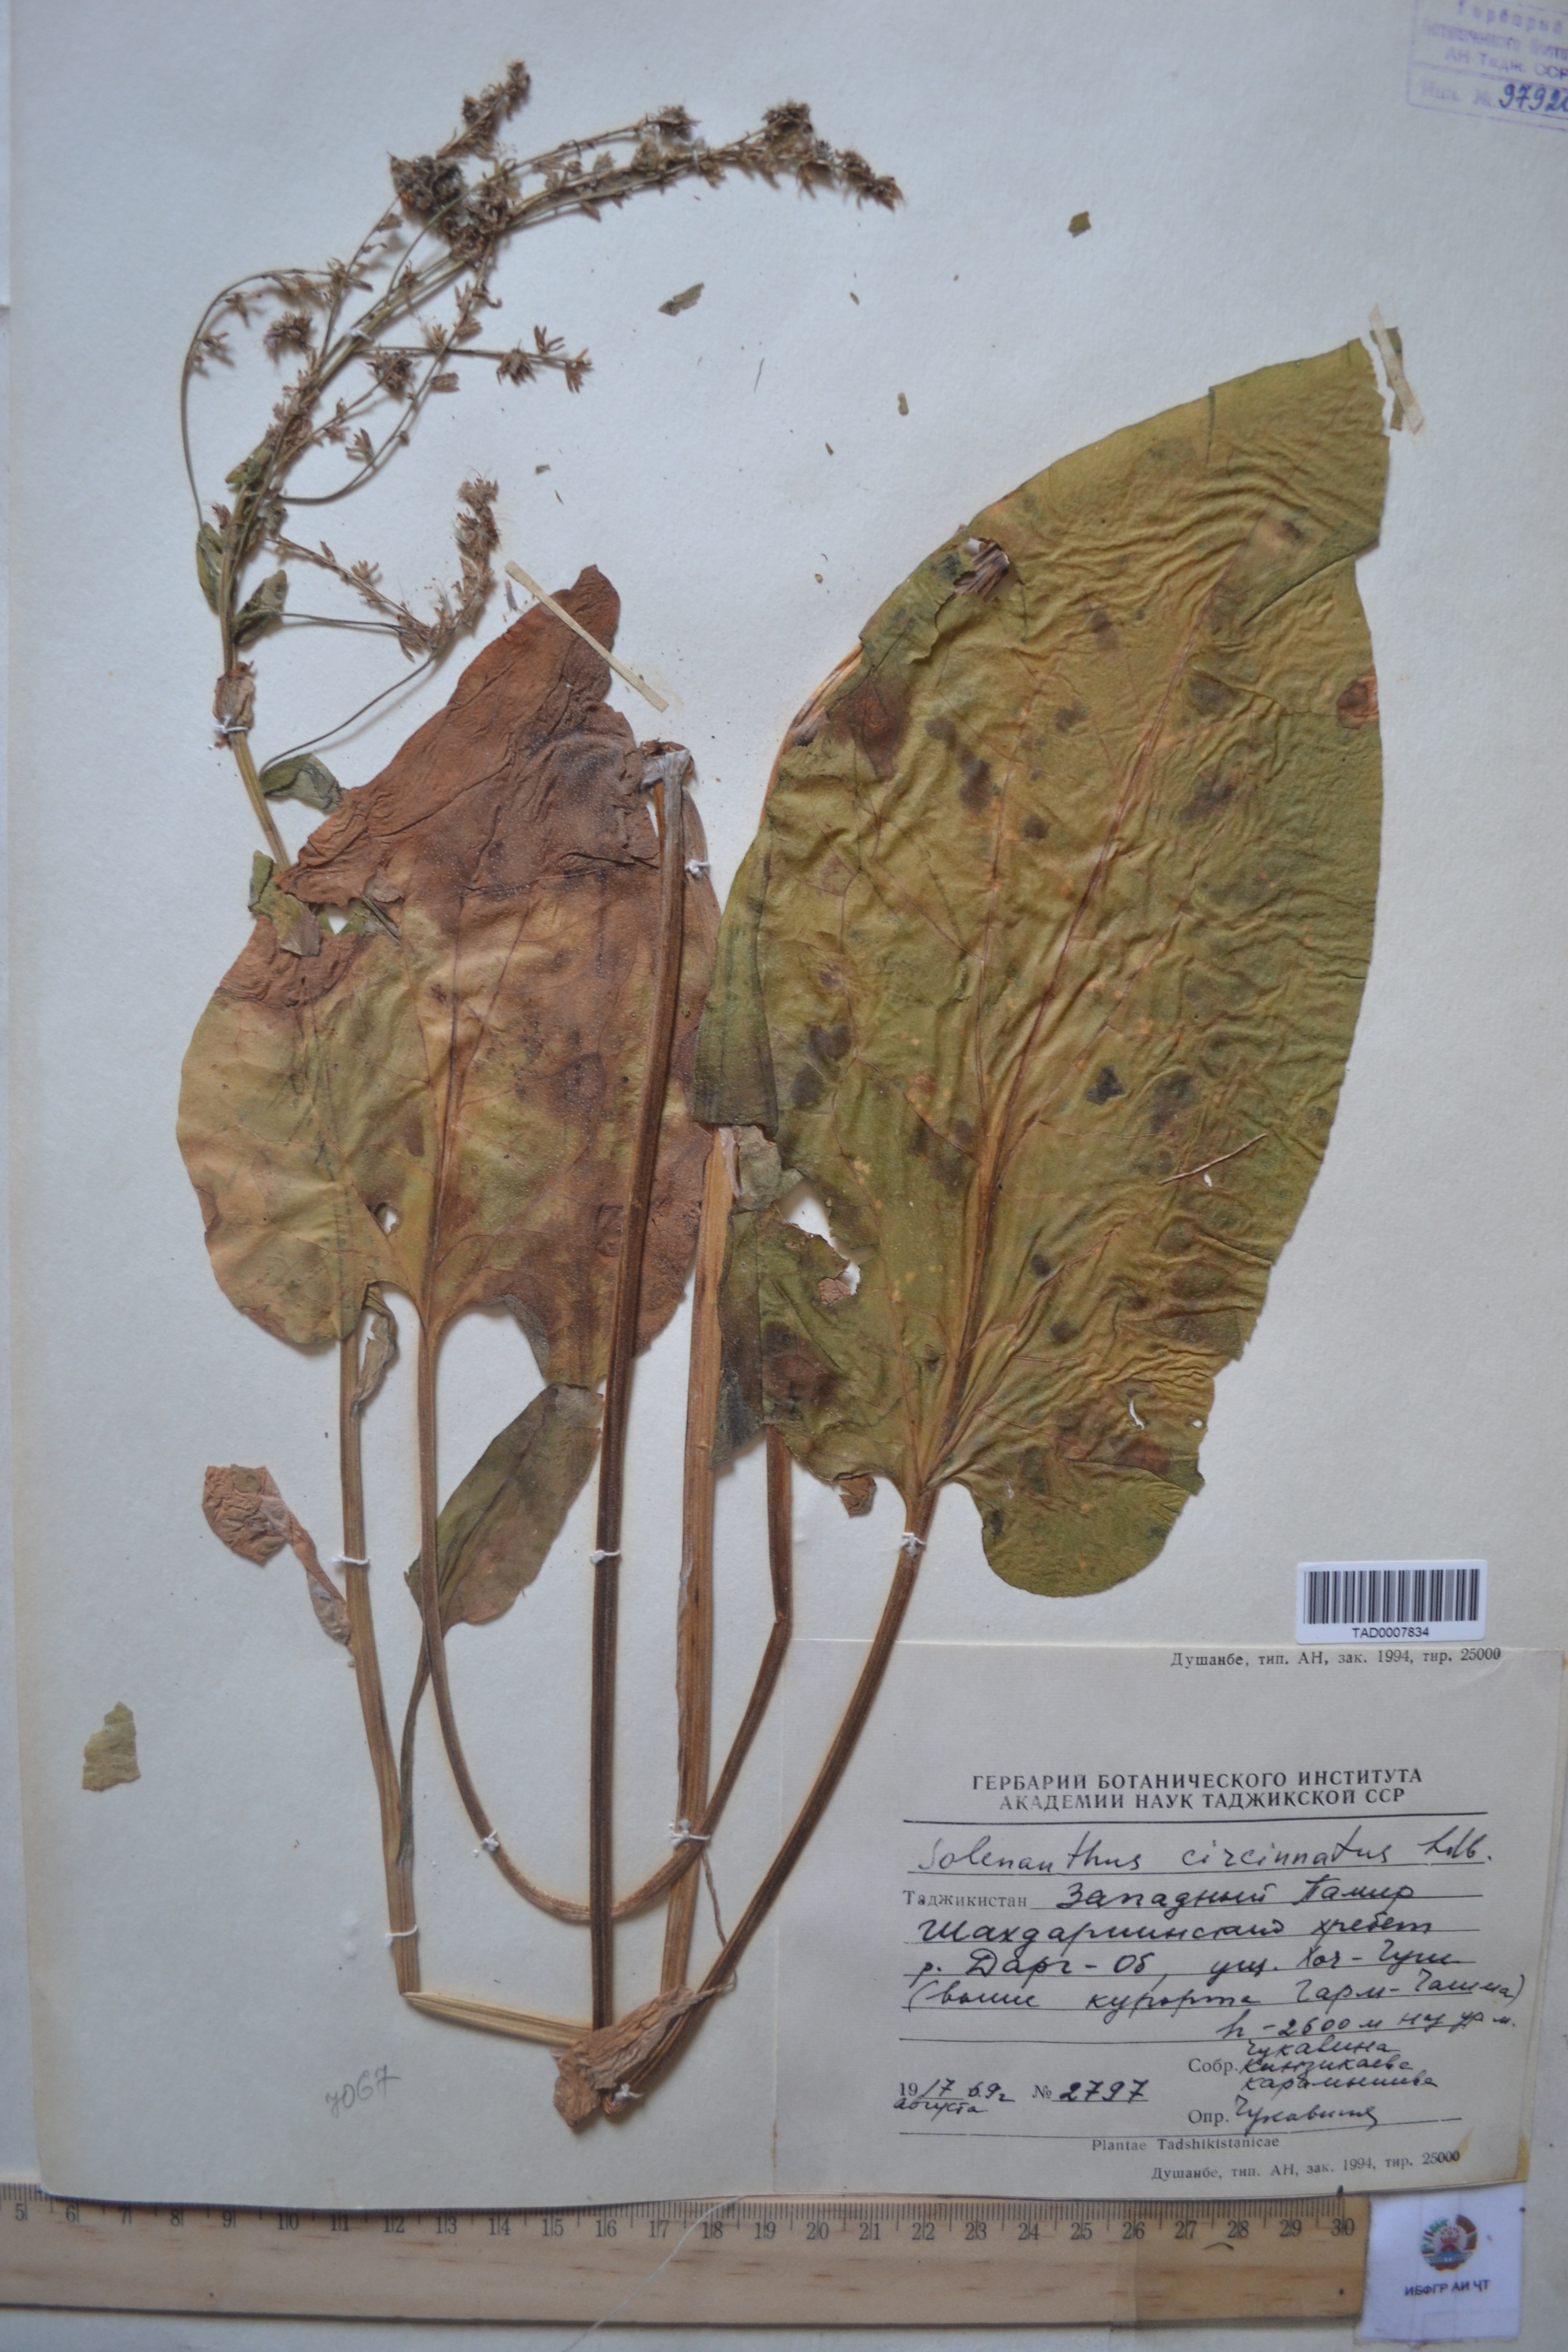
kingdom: Plantae
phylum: Tracheophyta
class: Magnoliopsida
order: Boraginales
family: Boraginaceae
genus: Solenanthus
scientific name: Solenanthus circinnatus
